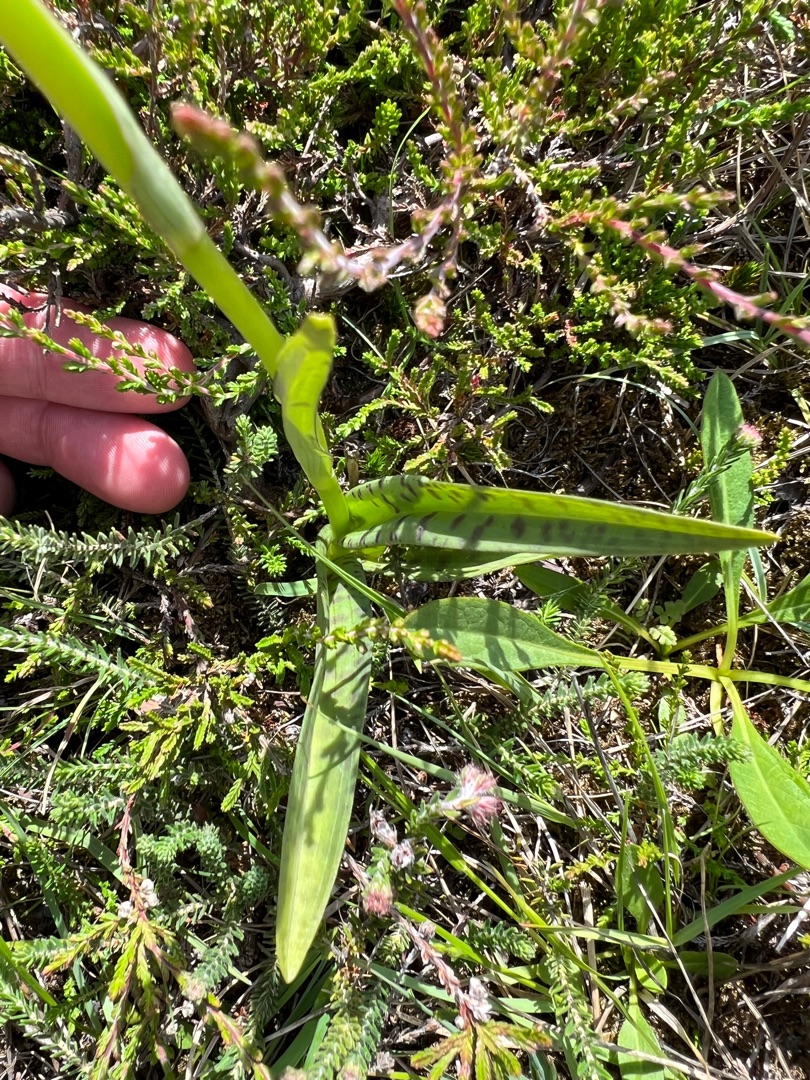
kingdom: Plantae
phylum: Tracheophyta
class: Liliopsida
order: Asparagales
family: Orchidaceae
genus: Dactylorhiza
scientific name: Dactylorhiza maculata
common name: Plettet gøgeurt
